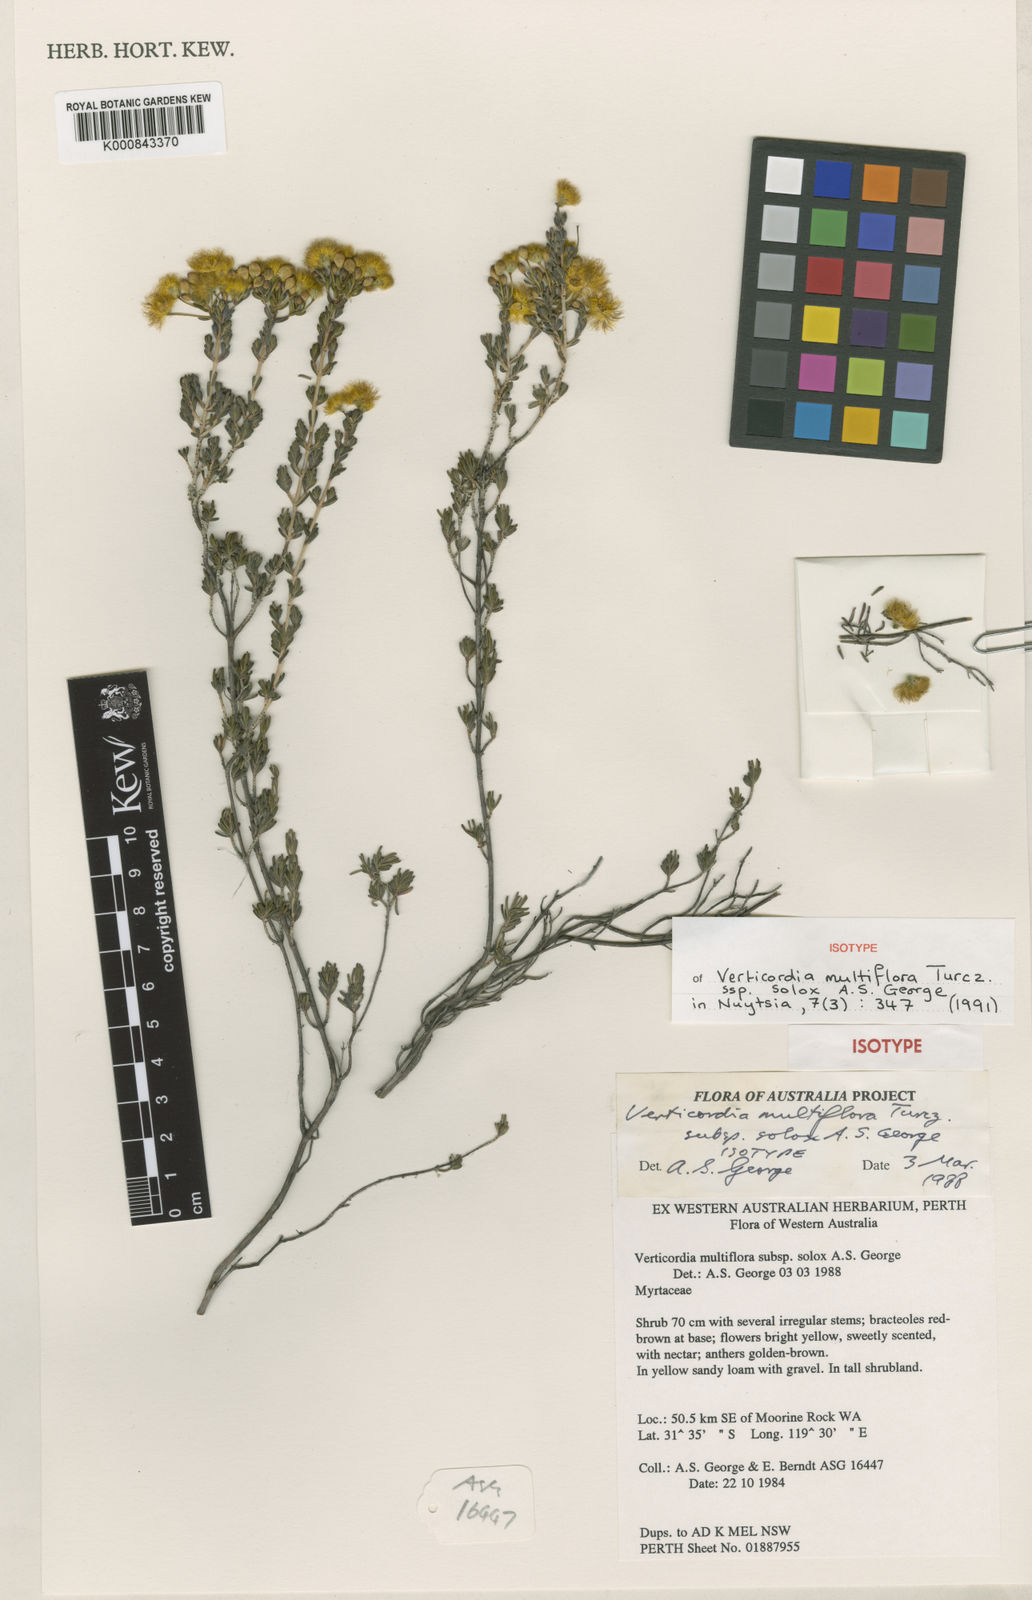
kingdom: Plantae
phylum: Tracheophyta
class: Magnoliopsida
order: Myrtales
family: Myrtaceae
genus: Verticordia
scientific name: Verticordia multiflora
